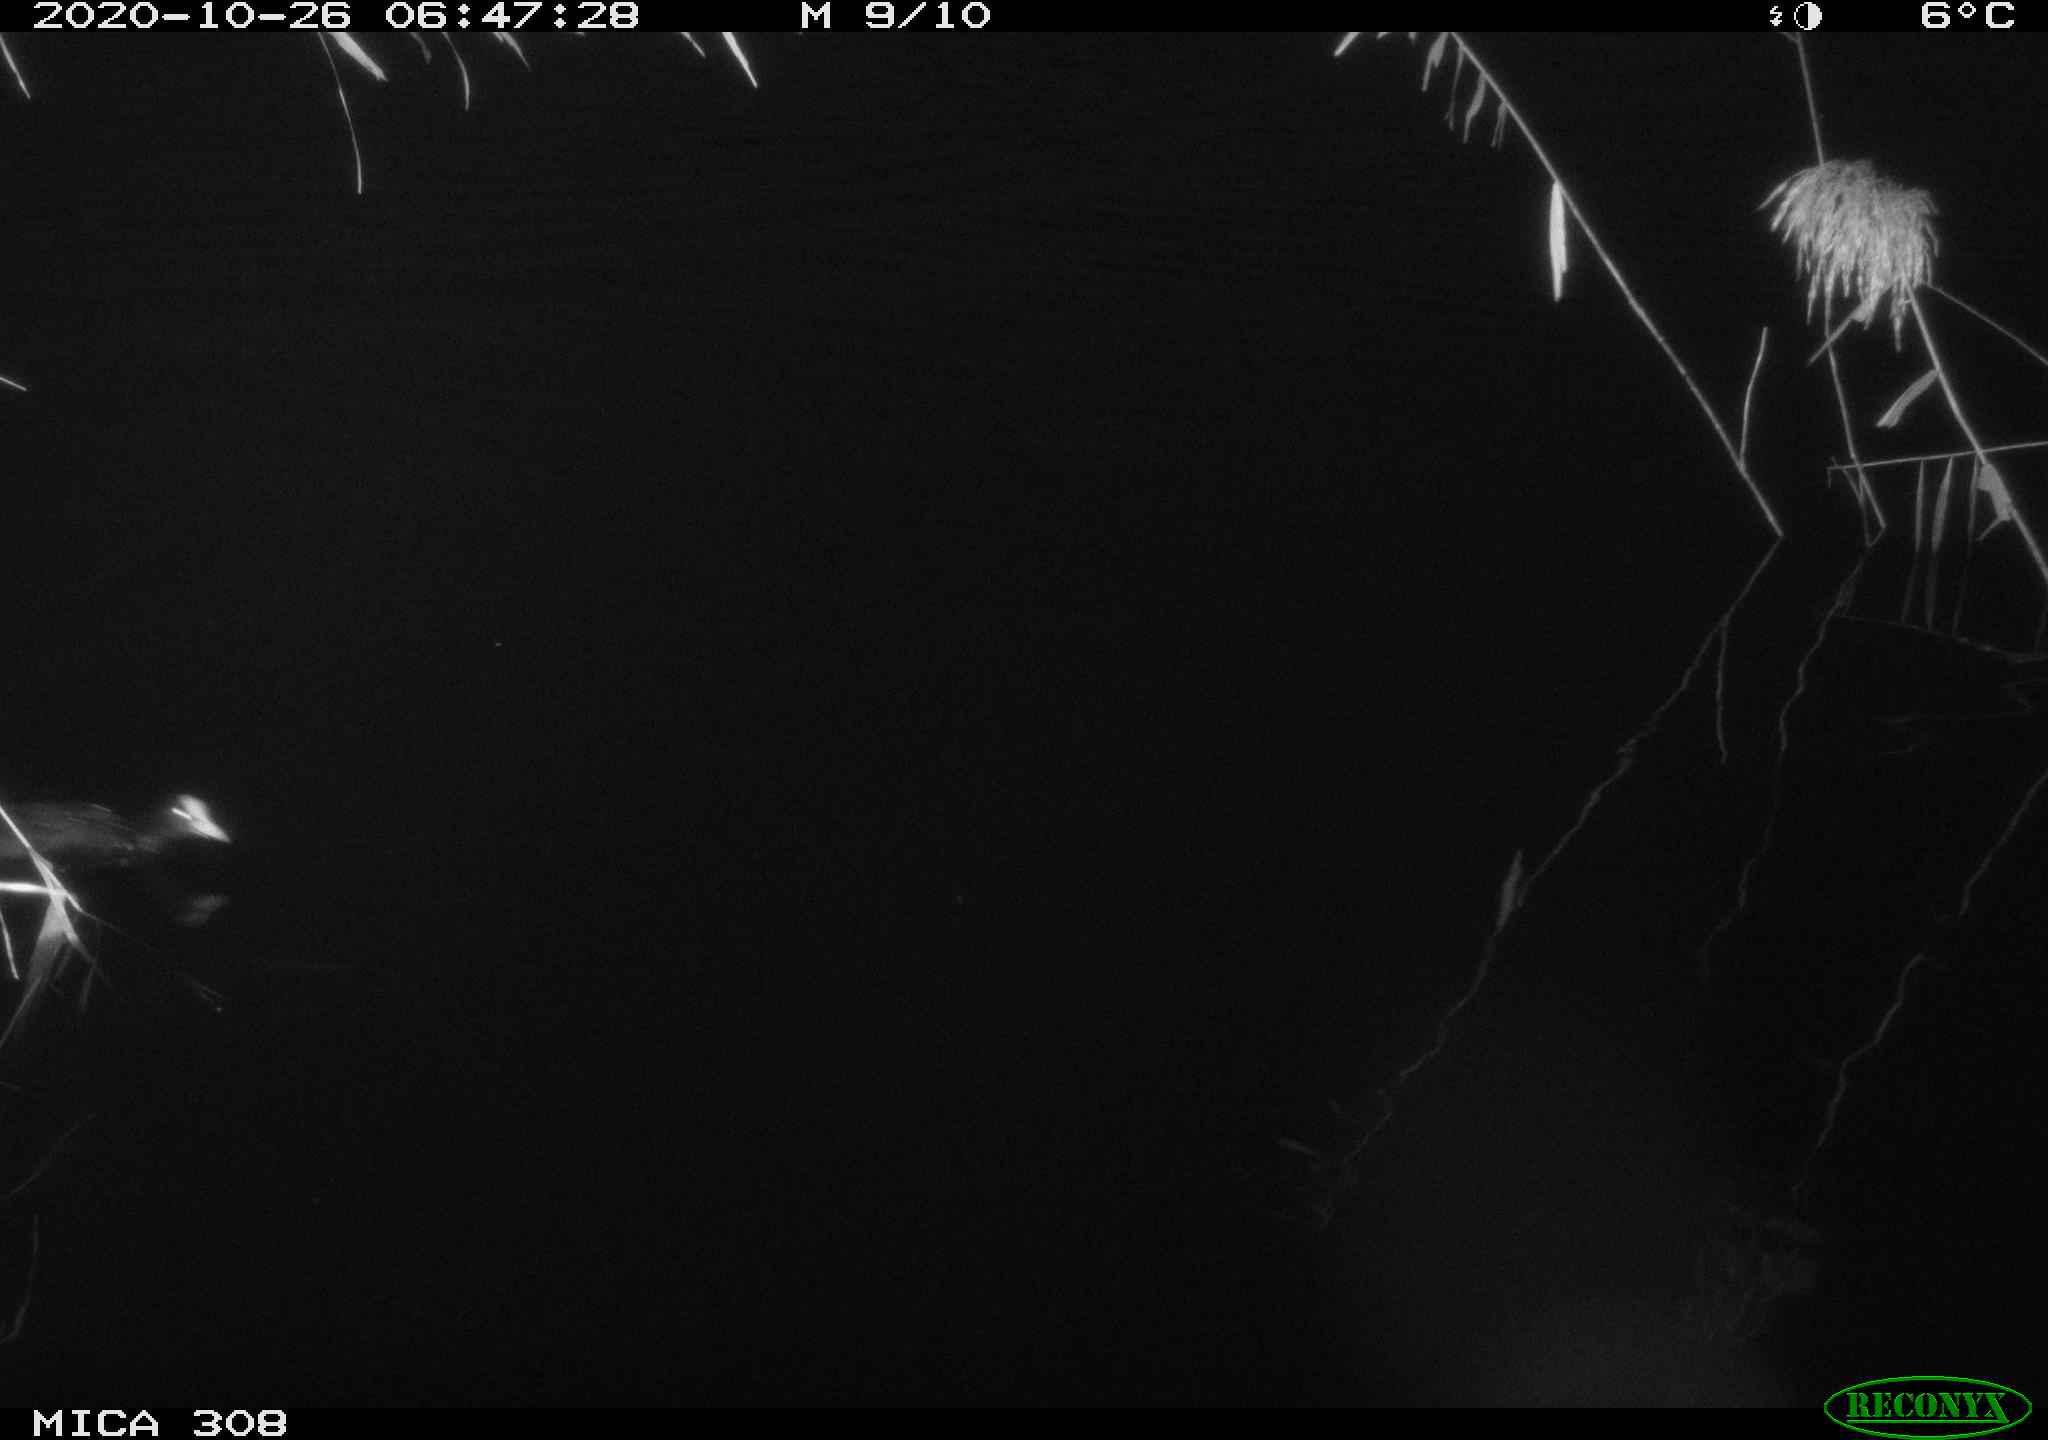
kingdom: Animalia
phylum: Chordata
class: Aves
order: Gruiformes
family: Rallidae
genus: Fulica
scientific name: Fulica atra
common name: Eurasian coot
